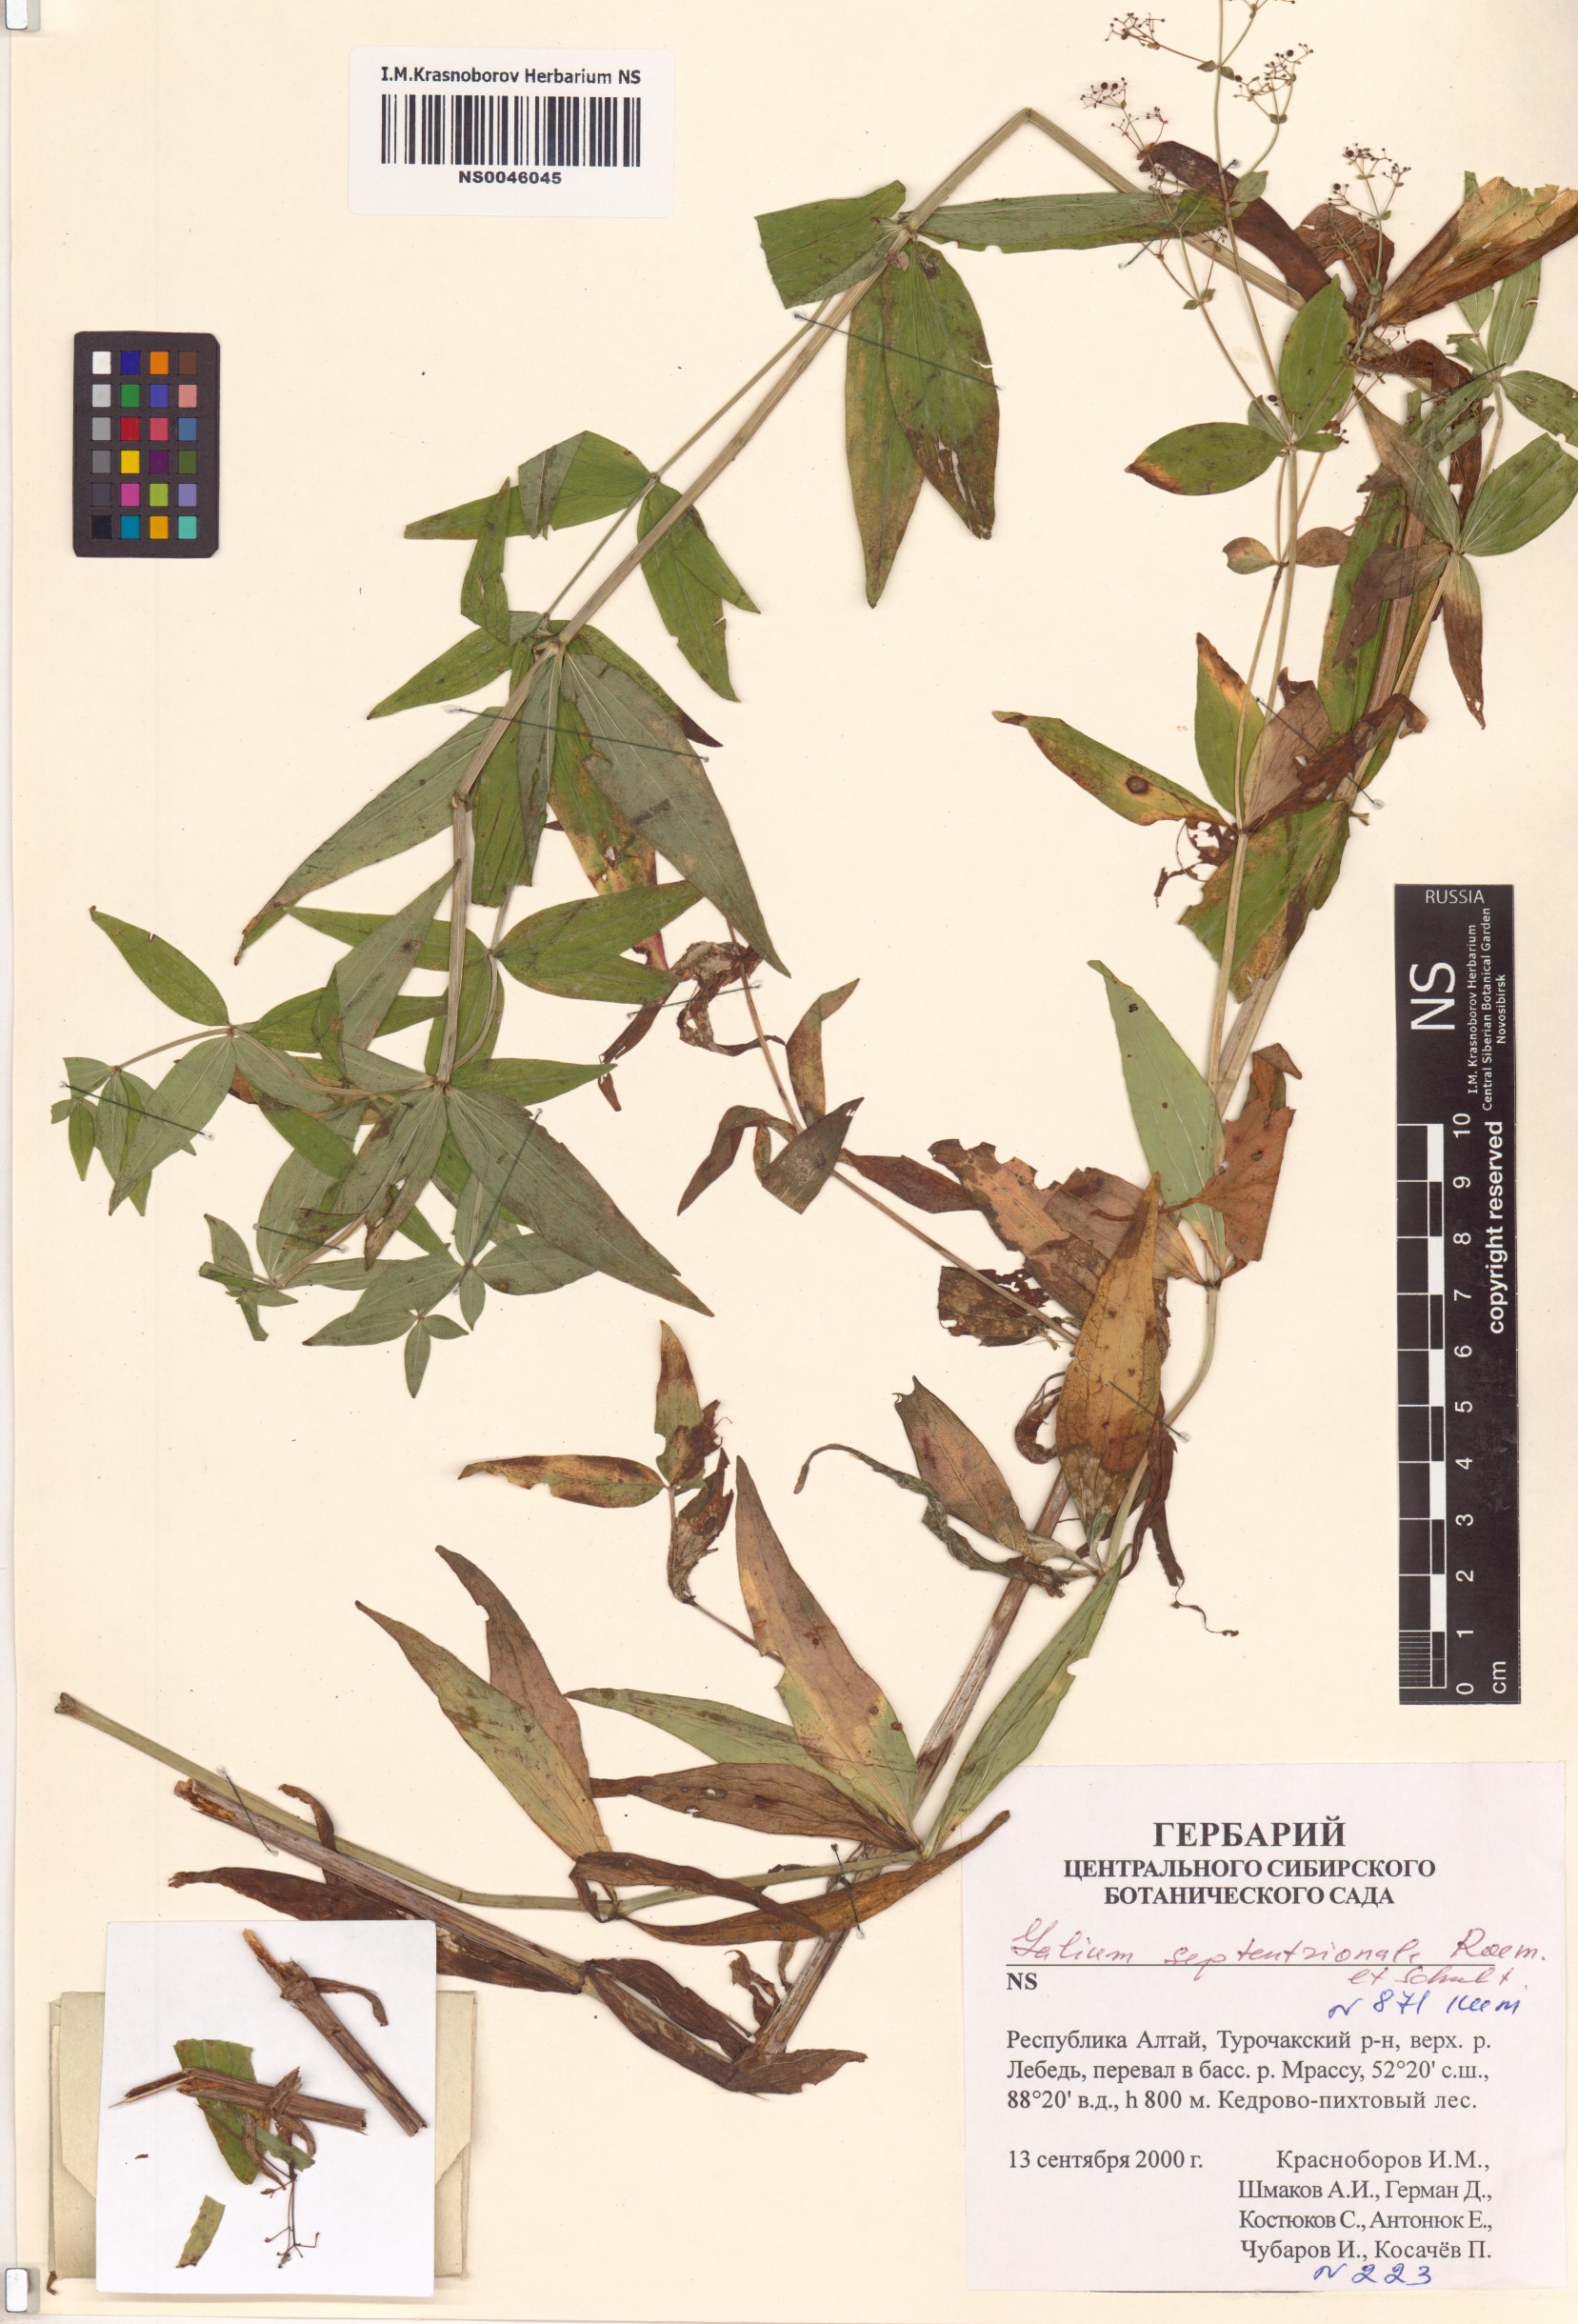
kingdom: Plantae
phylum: Tracheophyta
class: Magnoliopsida
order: Gentianales
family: Rubiaceae
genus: Galium
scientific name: Galium boreale
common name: Northern bedstraw
